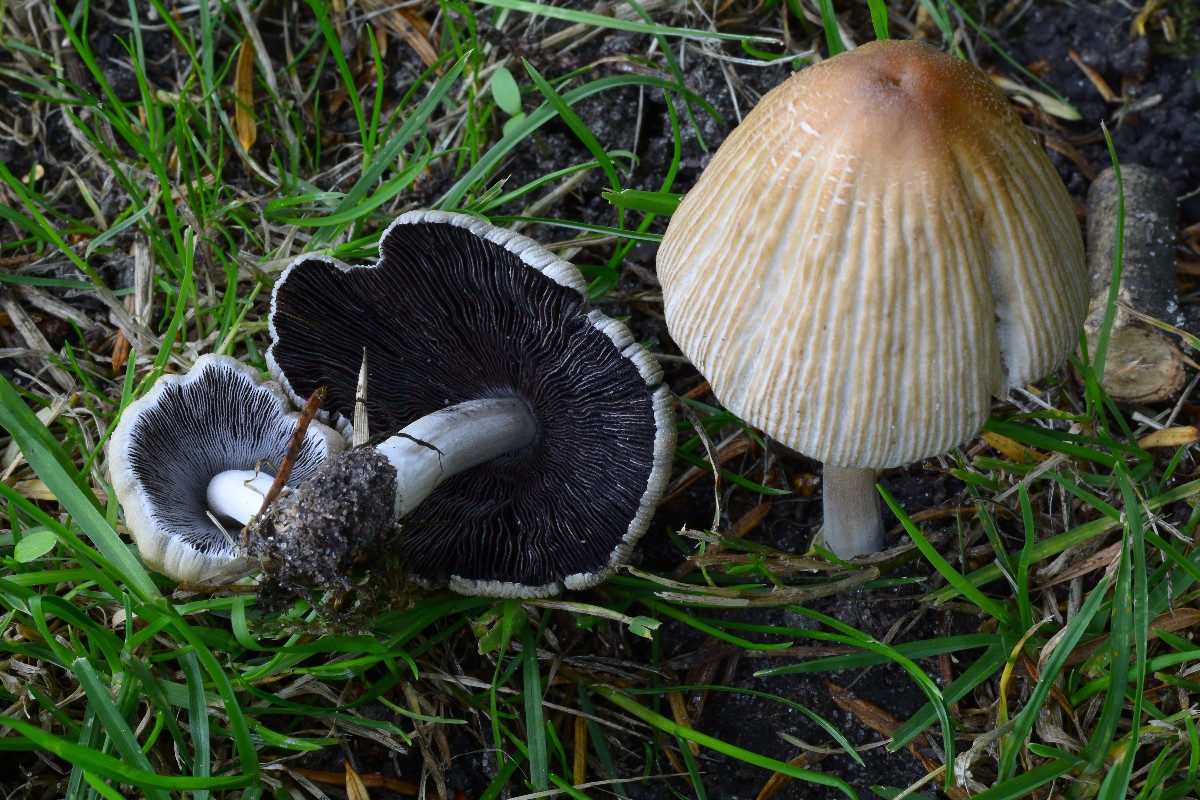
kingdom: Fungi
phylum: Basidiomycota
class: Agaricomycetes
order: Agaricales
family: Psathyrellaceae
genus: Coprinellus
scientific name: Coprinellus
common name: blækhat
